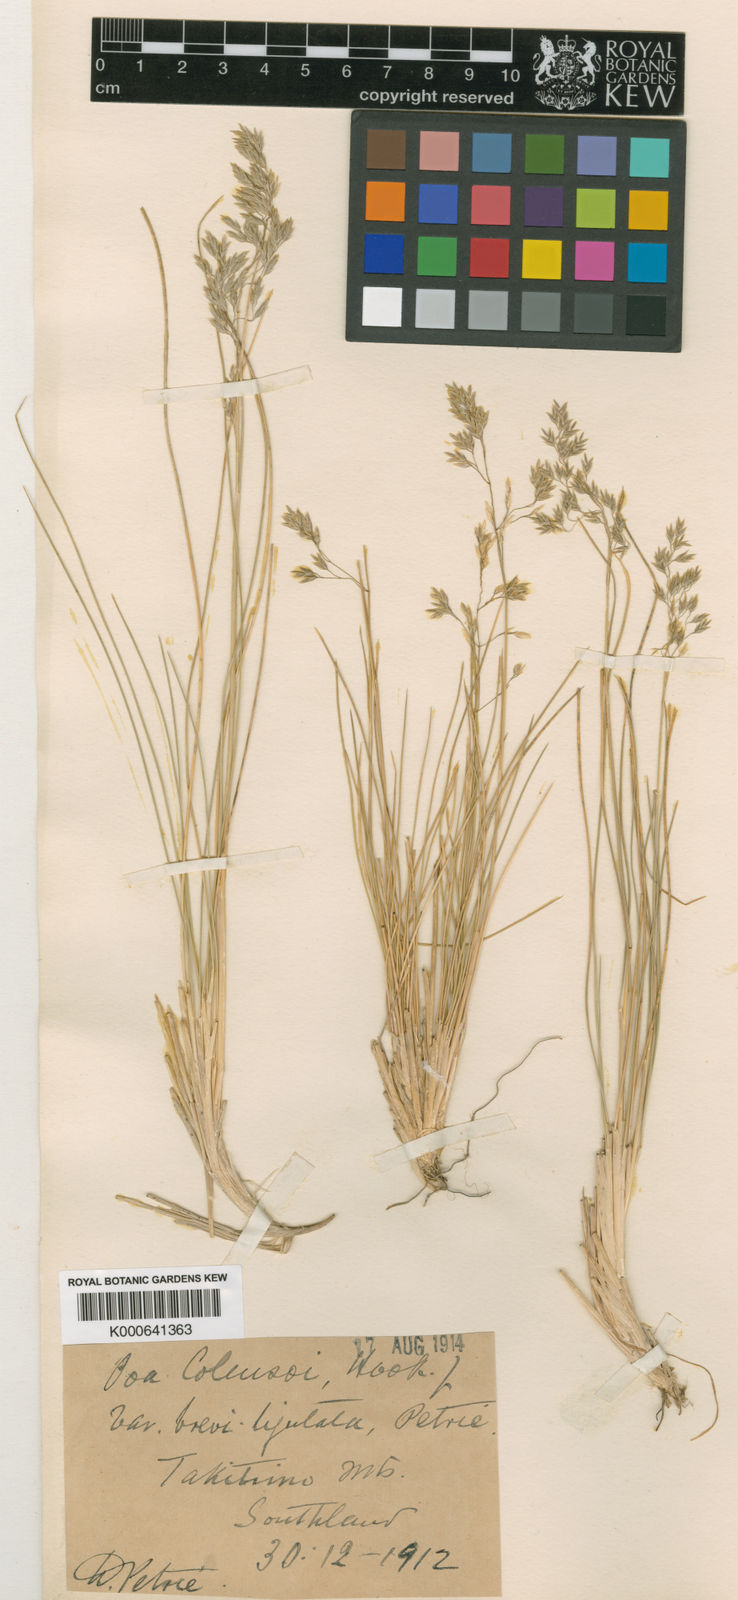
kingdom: Plantae
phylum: Tracheophyta
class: Liliopsida
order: Poales
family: Poaceae
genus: Poa
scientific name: Poa colensoi
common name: Blue tussock
